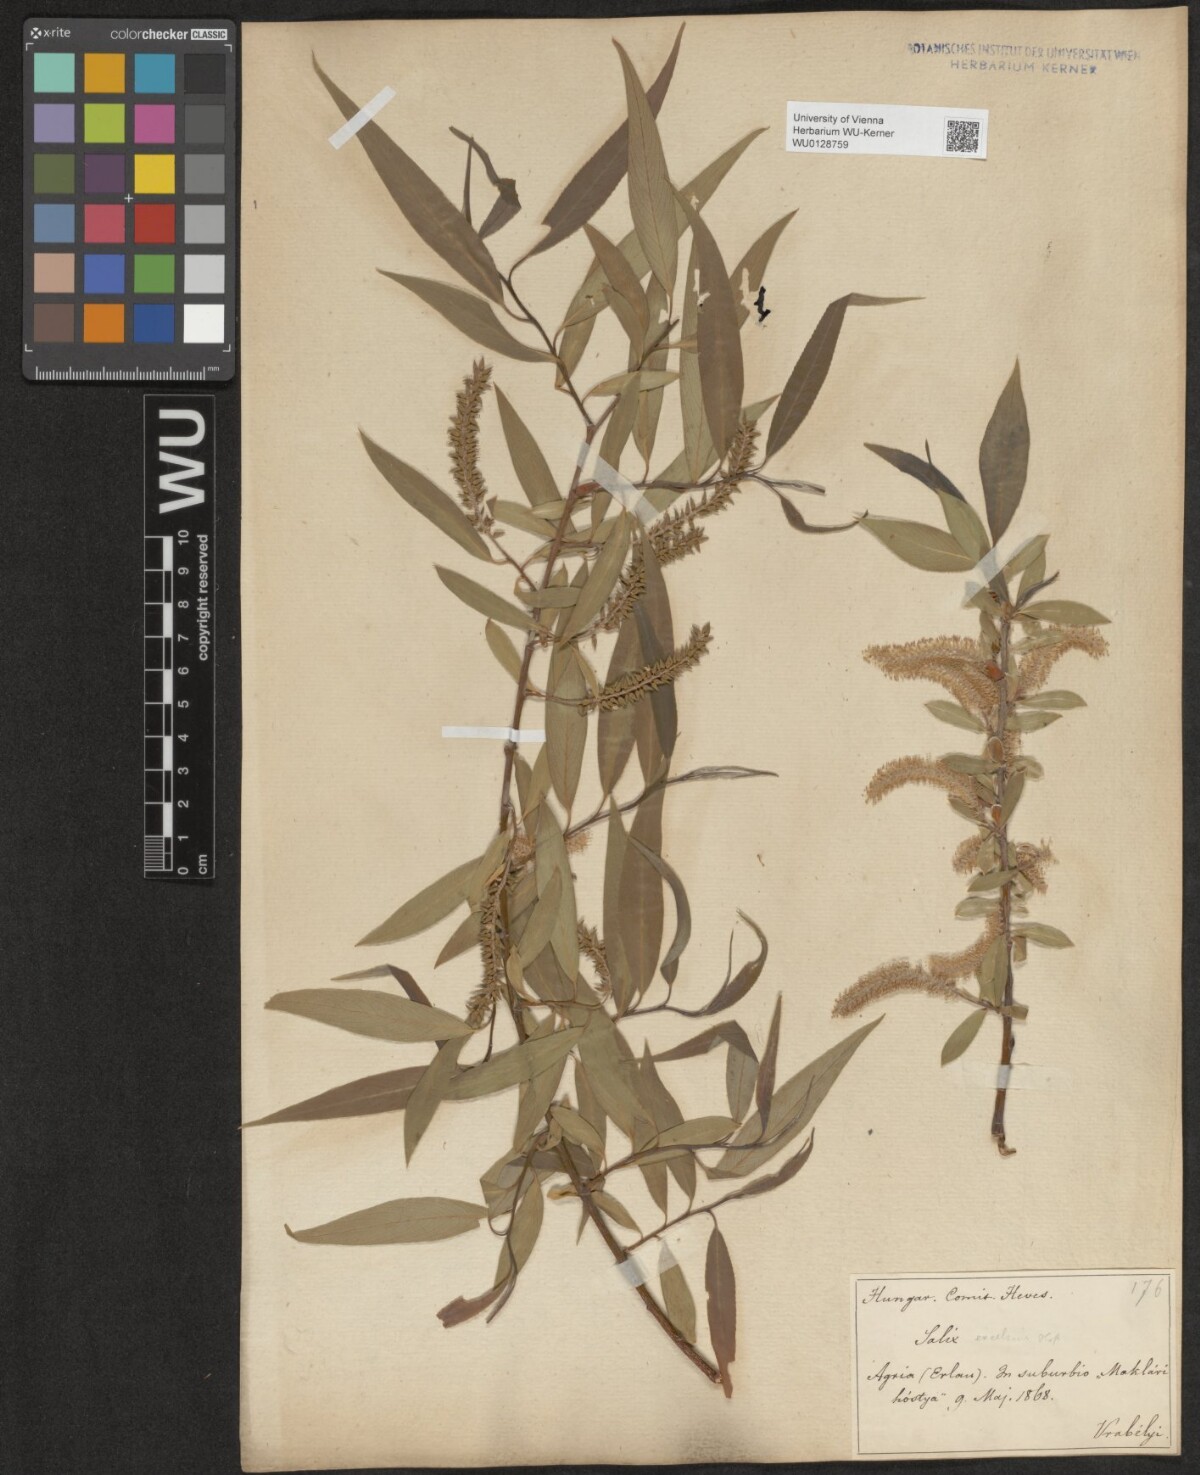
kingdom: Plantae
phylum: Tracheophyta
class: Magnoliopsida
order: Malpighiales
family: Salicaceae
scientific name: Salicaceae
